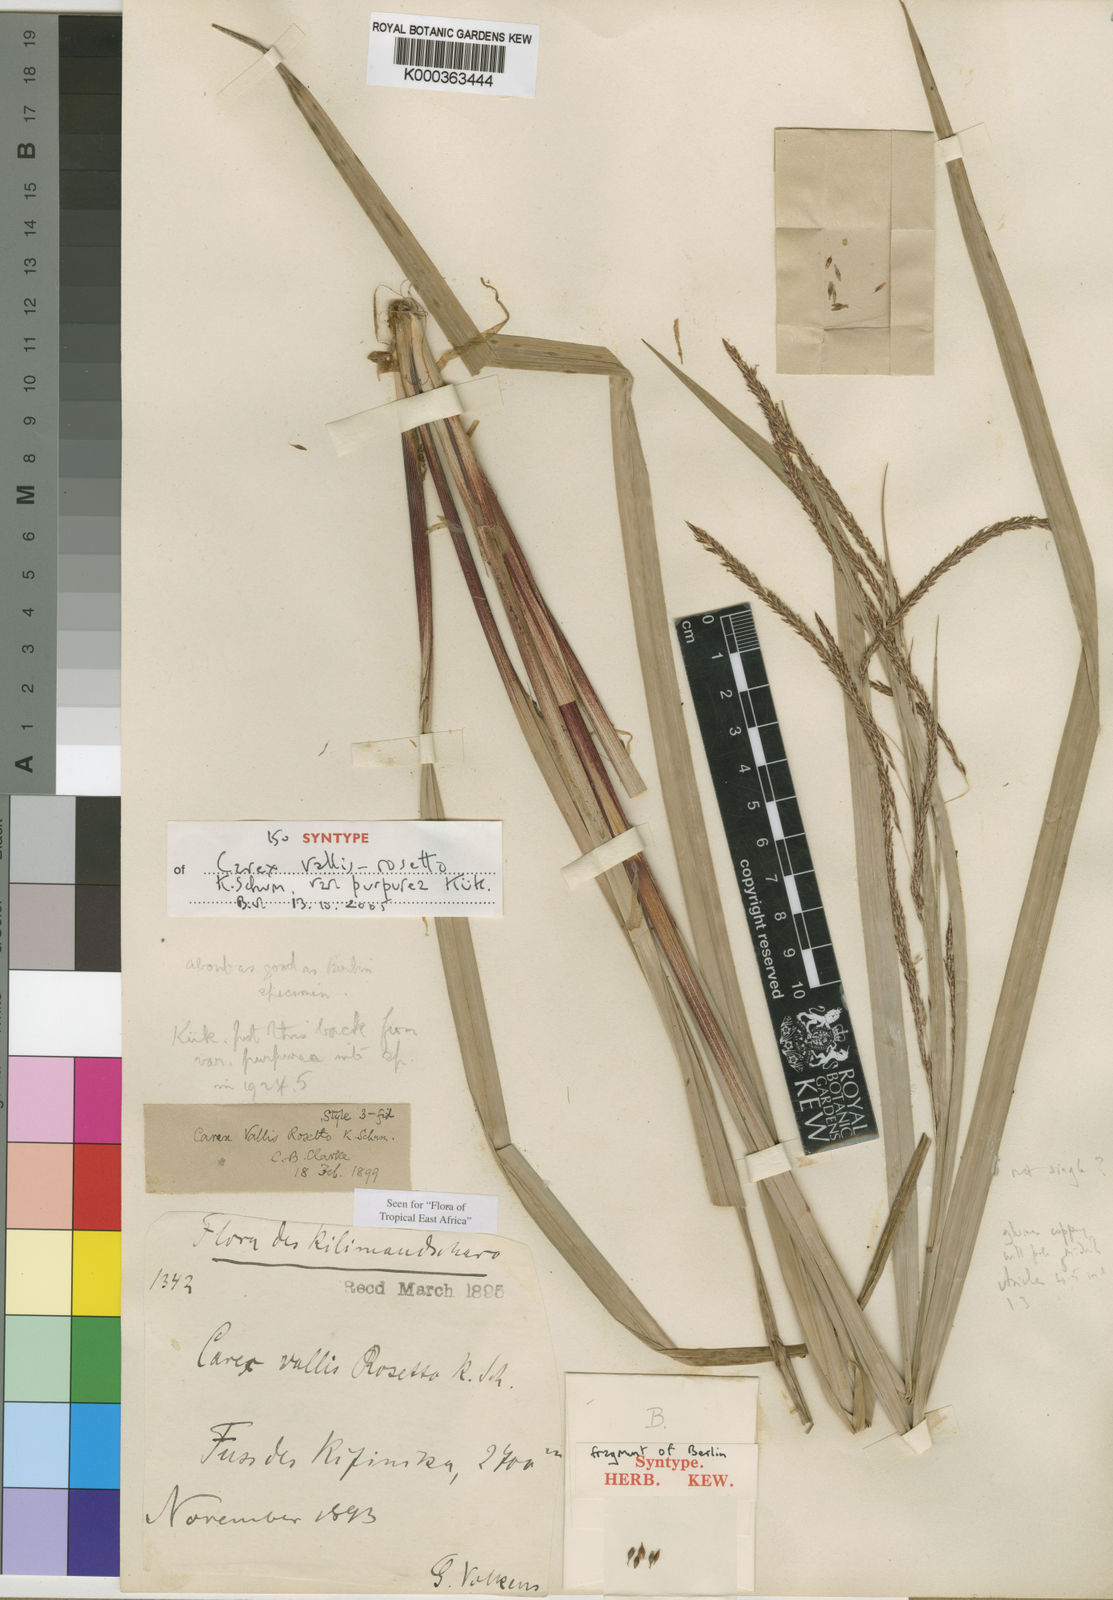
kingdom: Plantae
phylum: Tracheophyta
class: Liliopsida
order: Poales
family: Cyperaceae
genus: Carex
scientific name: Carex vallis-rosetto
